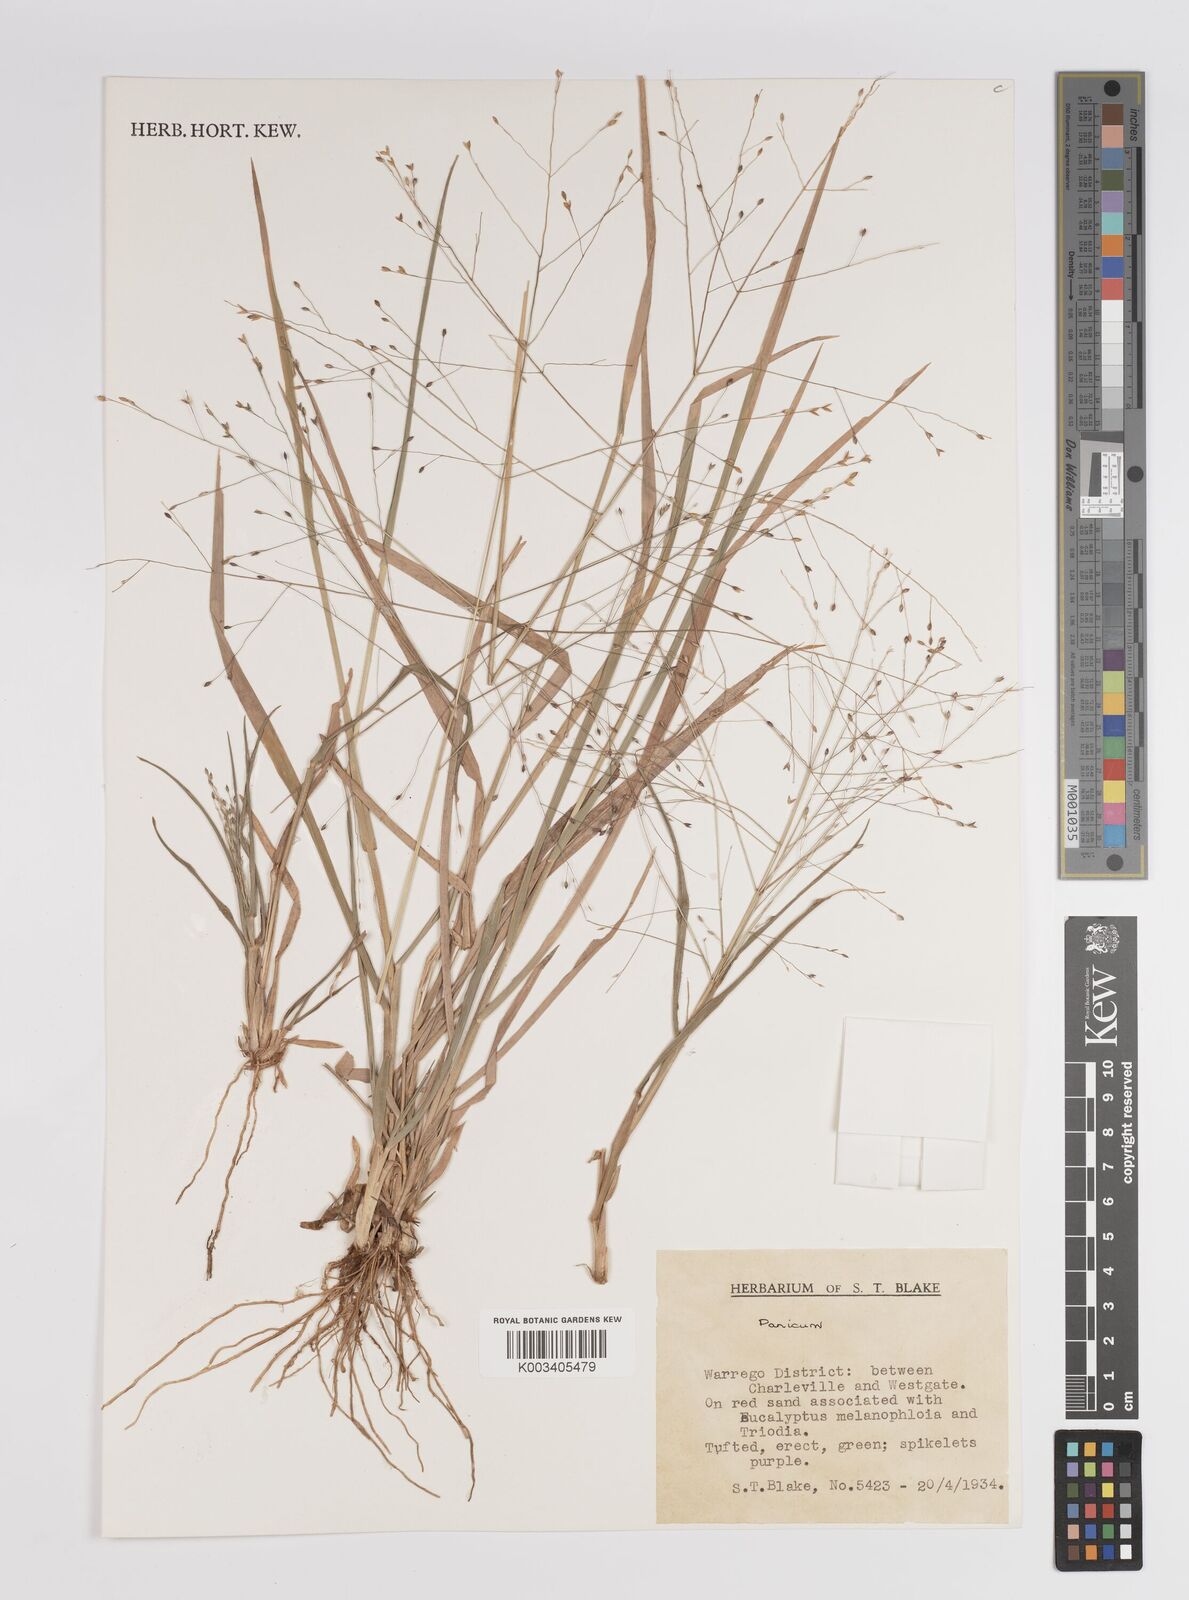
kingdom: Plantae
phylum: Tracheophyta
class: Liliopsida
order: Poales
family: Poaceae
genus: Panicum
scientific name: Panicum
